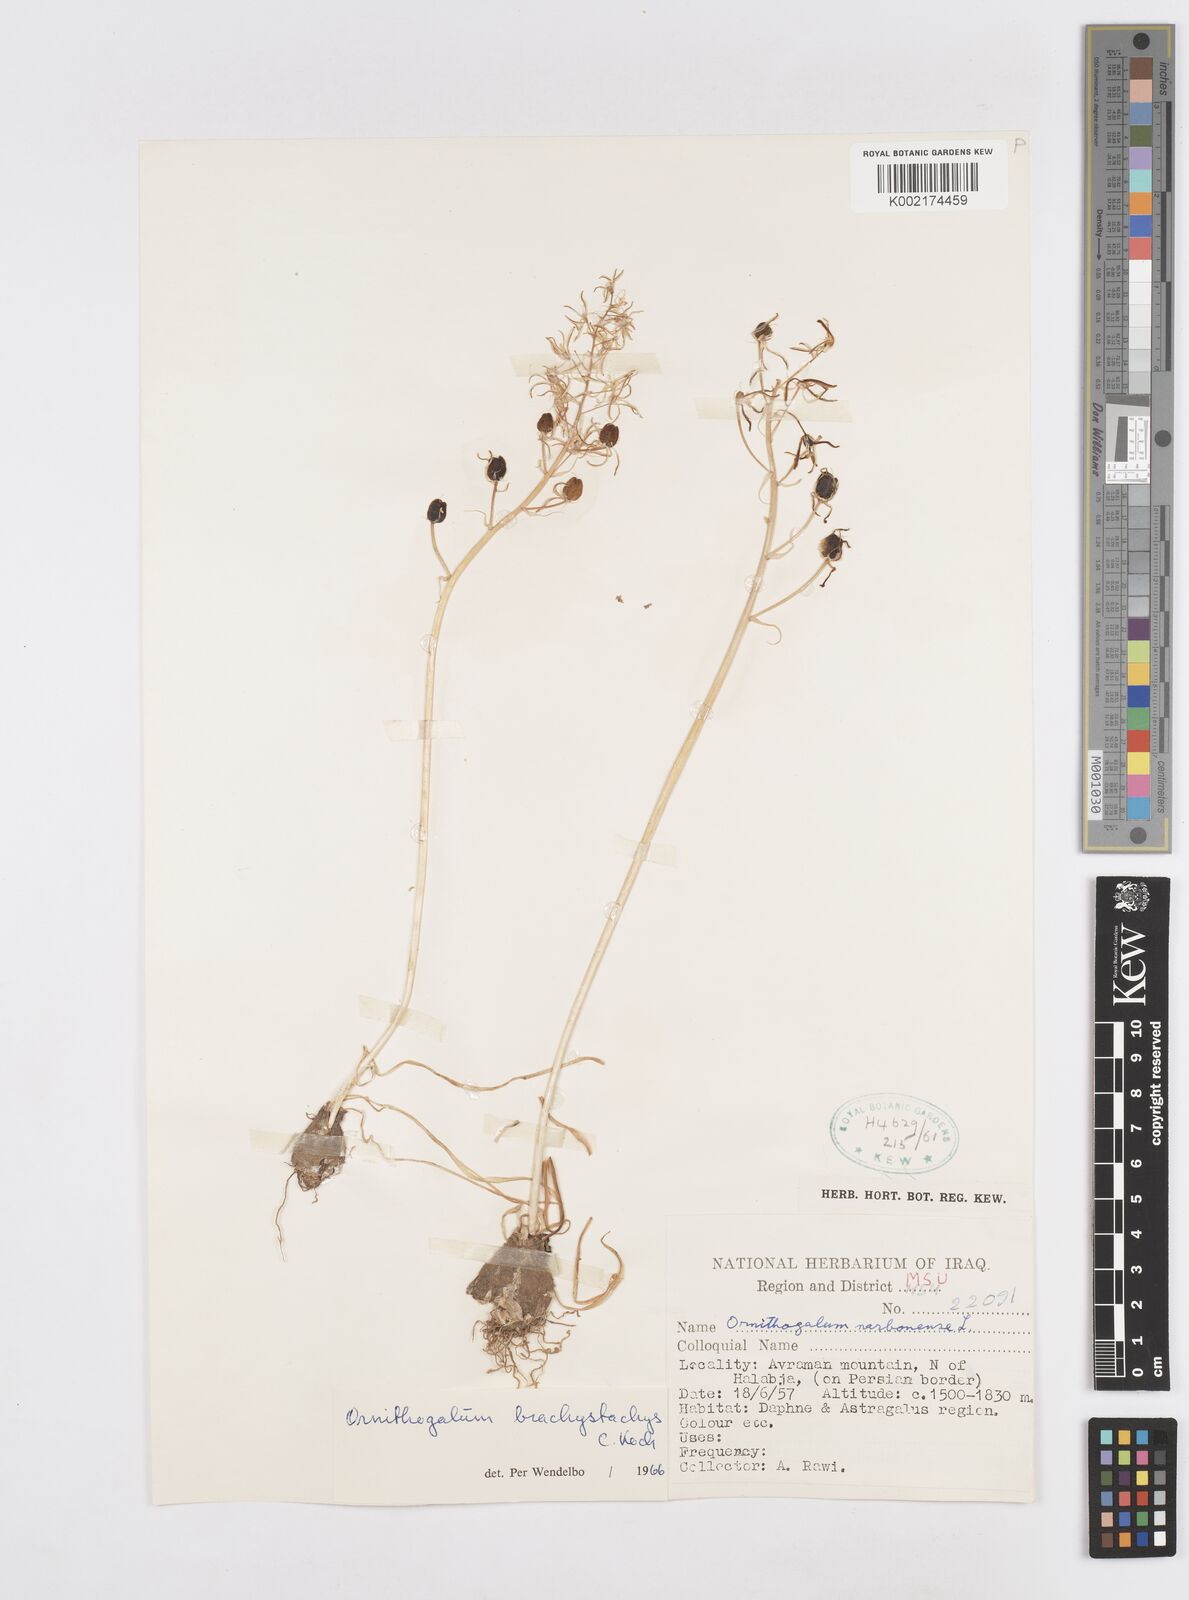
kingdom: Plantae
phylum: Tracheophyta
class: Liliopsida
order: Asparagales
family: Asparagaceae
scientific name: Asparagaceae
